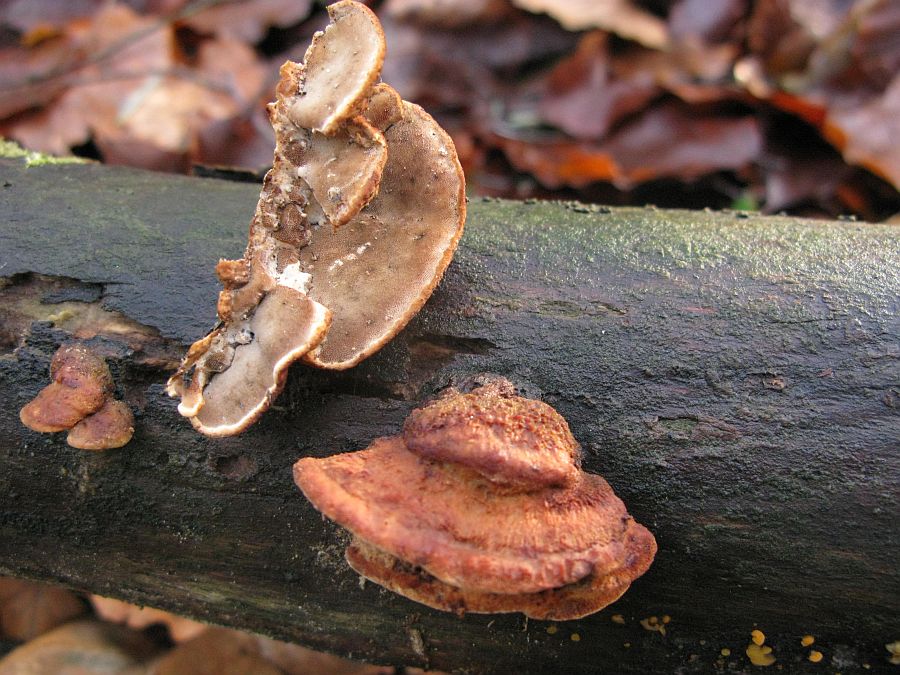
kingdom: Fungi
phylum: Basidiomycota
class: Agaricomycetes
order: Polyporales
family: Incrustoporiaceae
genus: Skeletocutis
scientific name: Skeletocutis nemoralis
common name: stor krystalporesvamp
